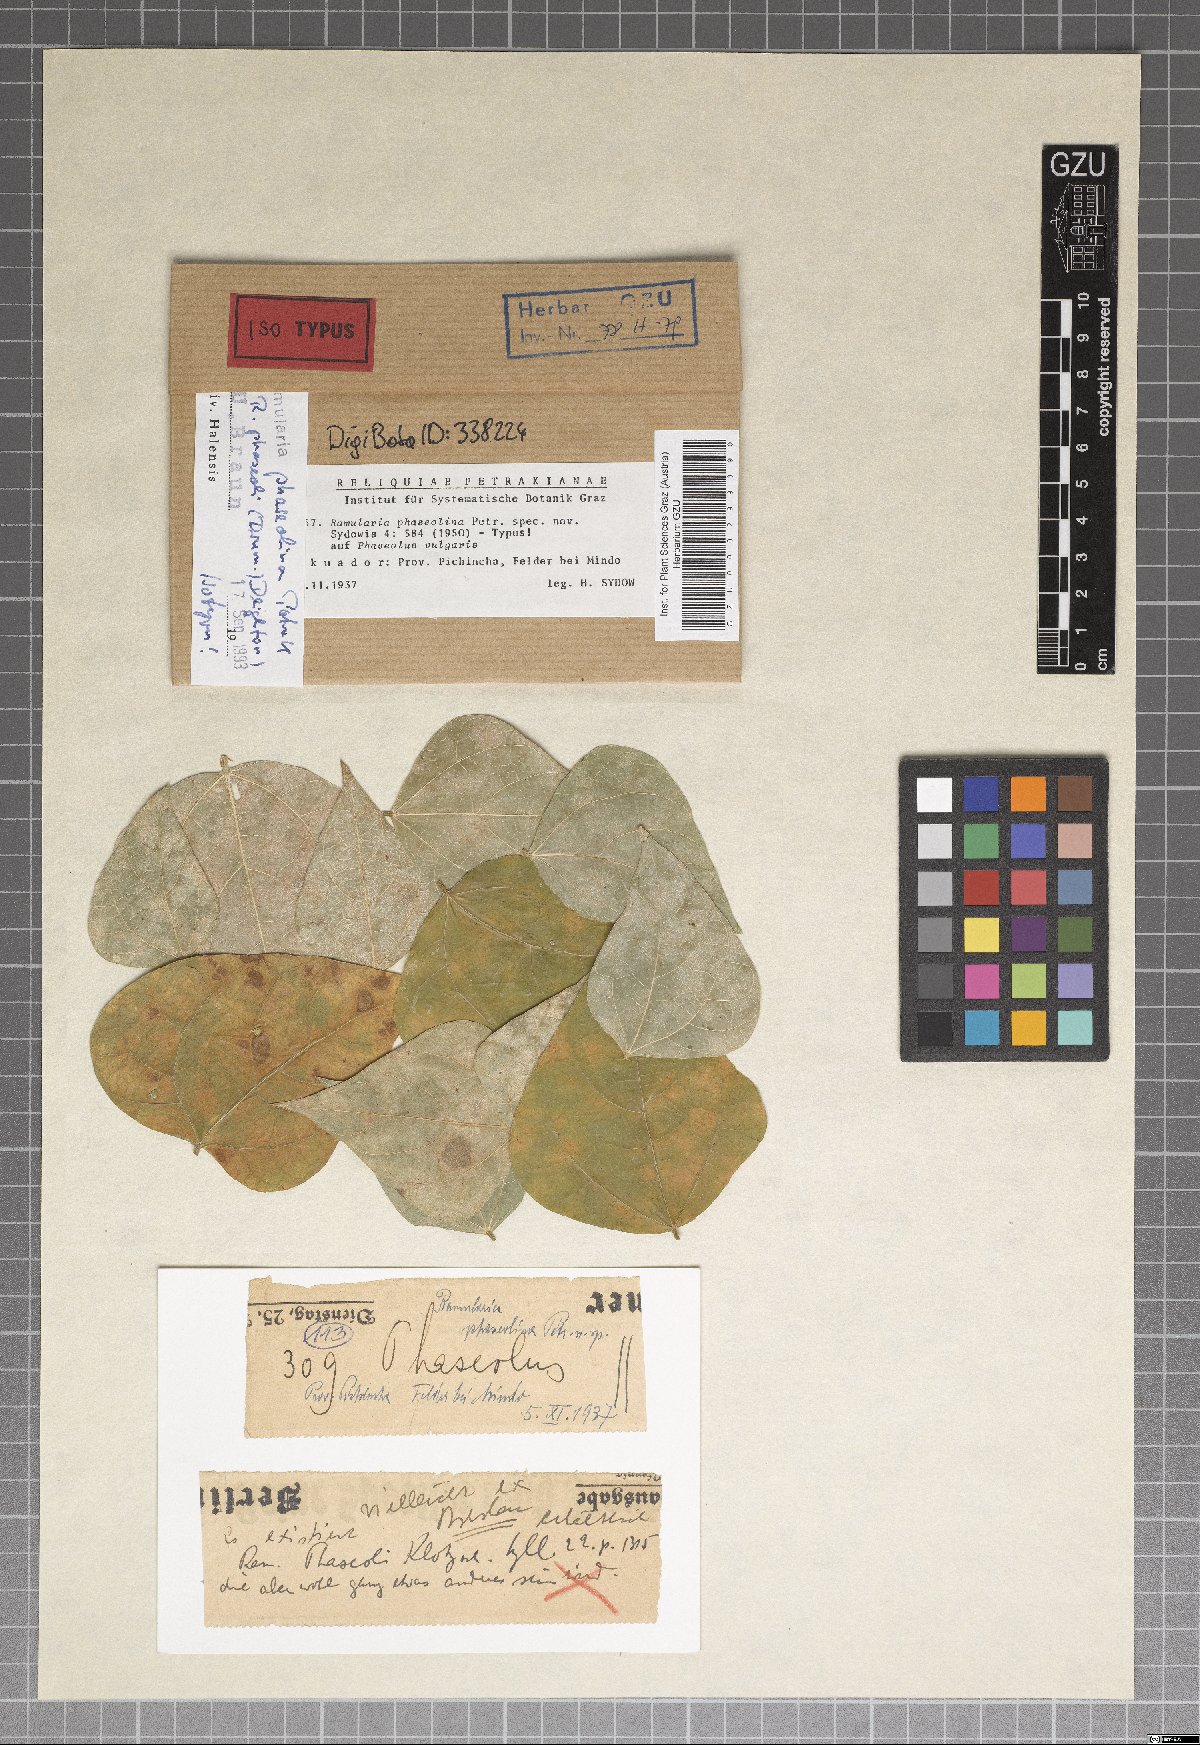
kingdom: Fungi
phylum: Ascomycota
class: Dothideomycetes
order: Mycosphaerellales
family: Mycosphaerellaceae
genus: Ramularia
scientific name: Ramularia phaseolina
